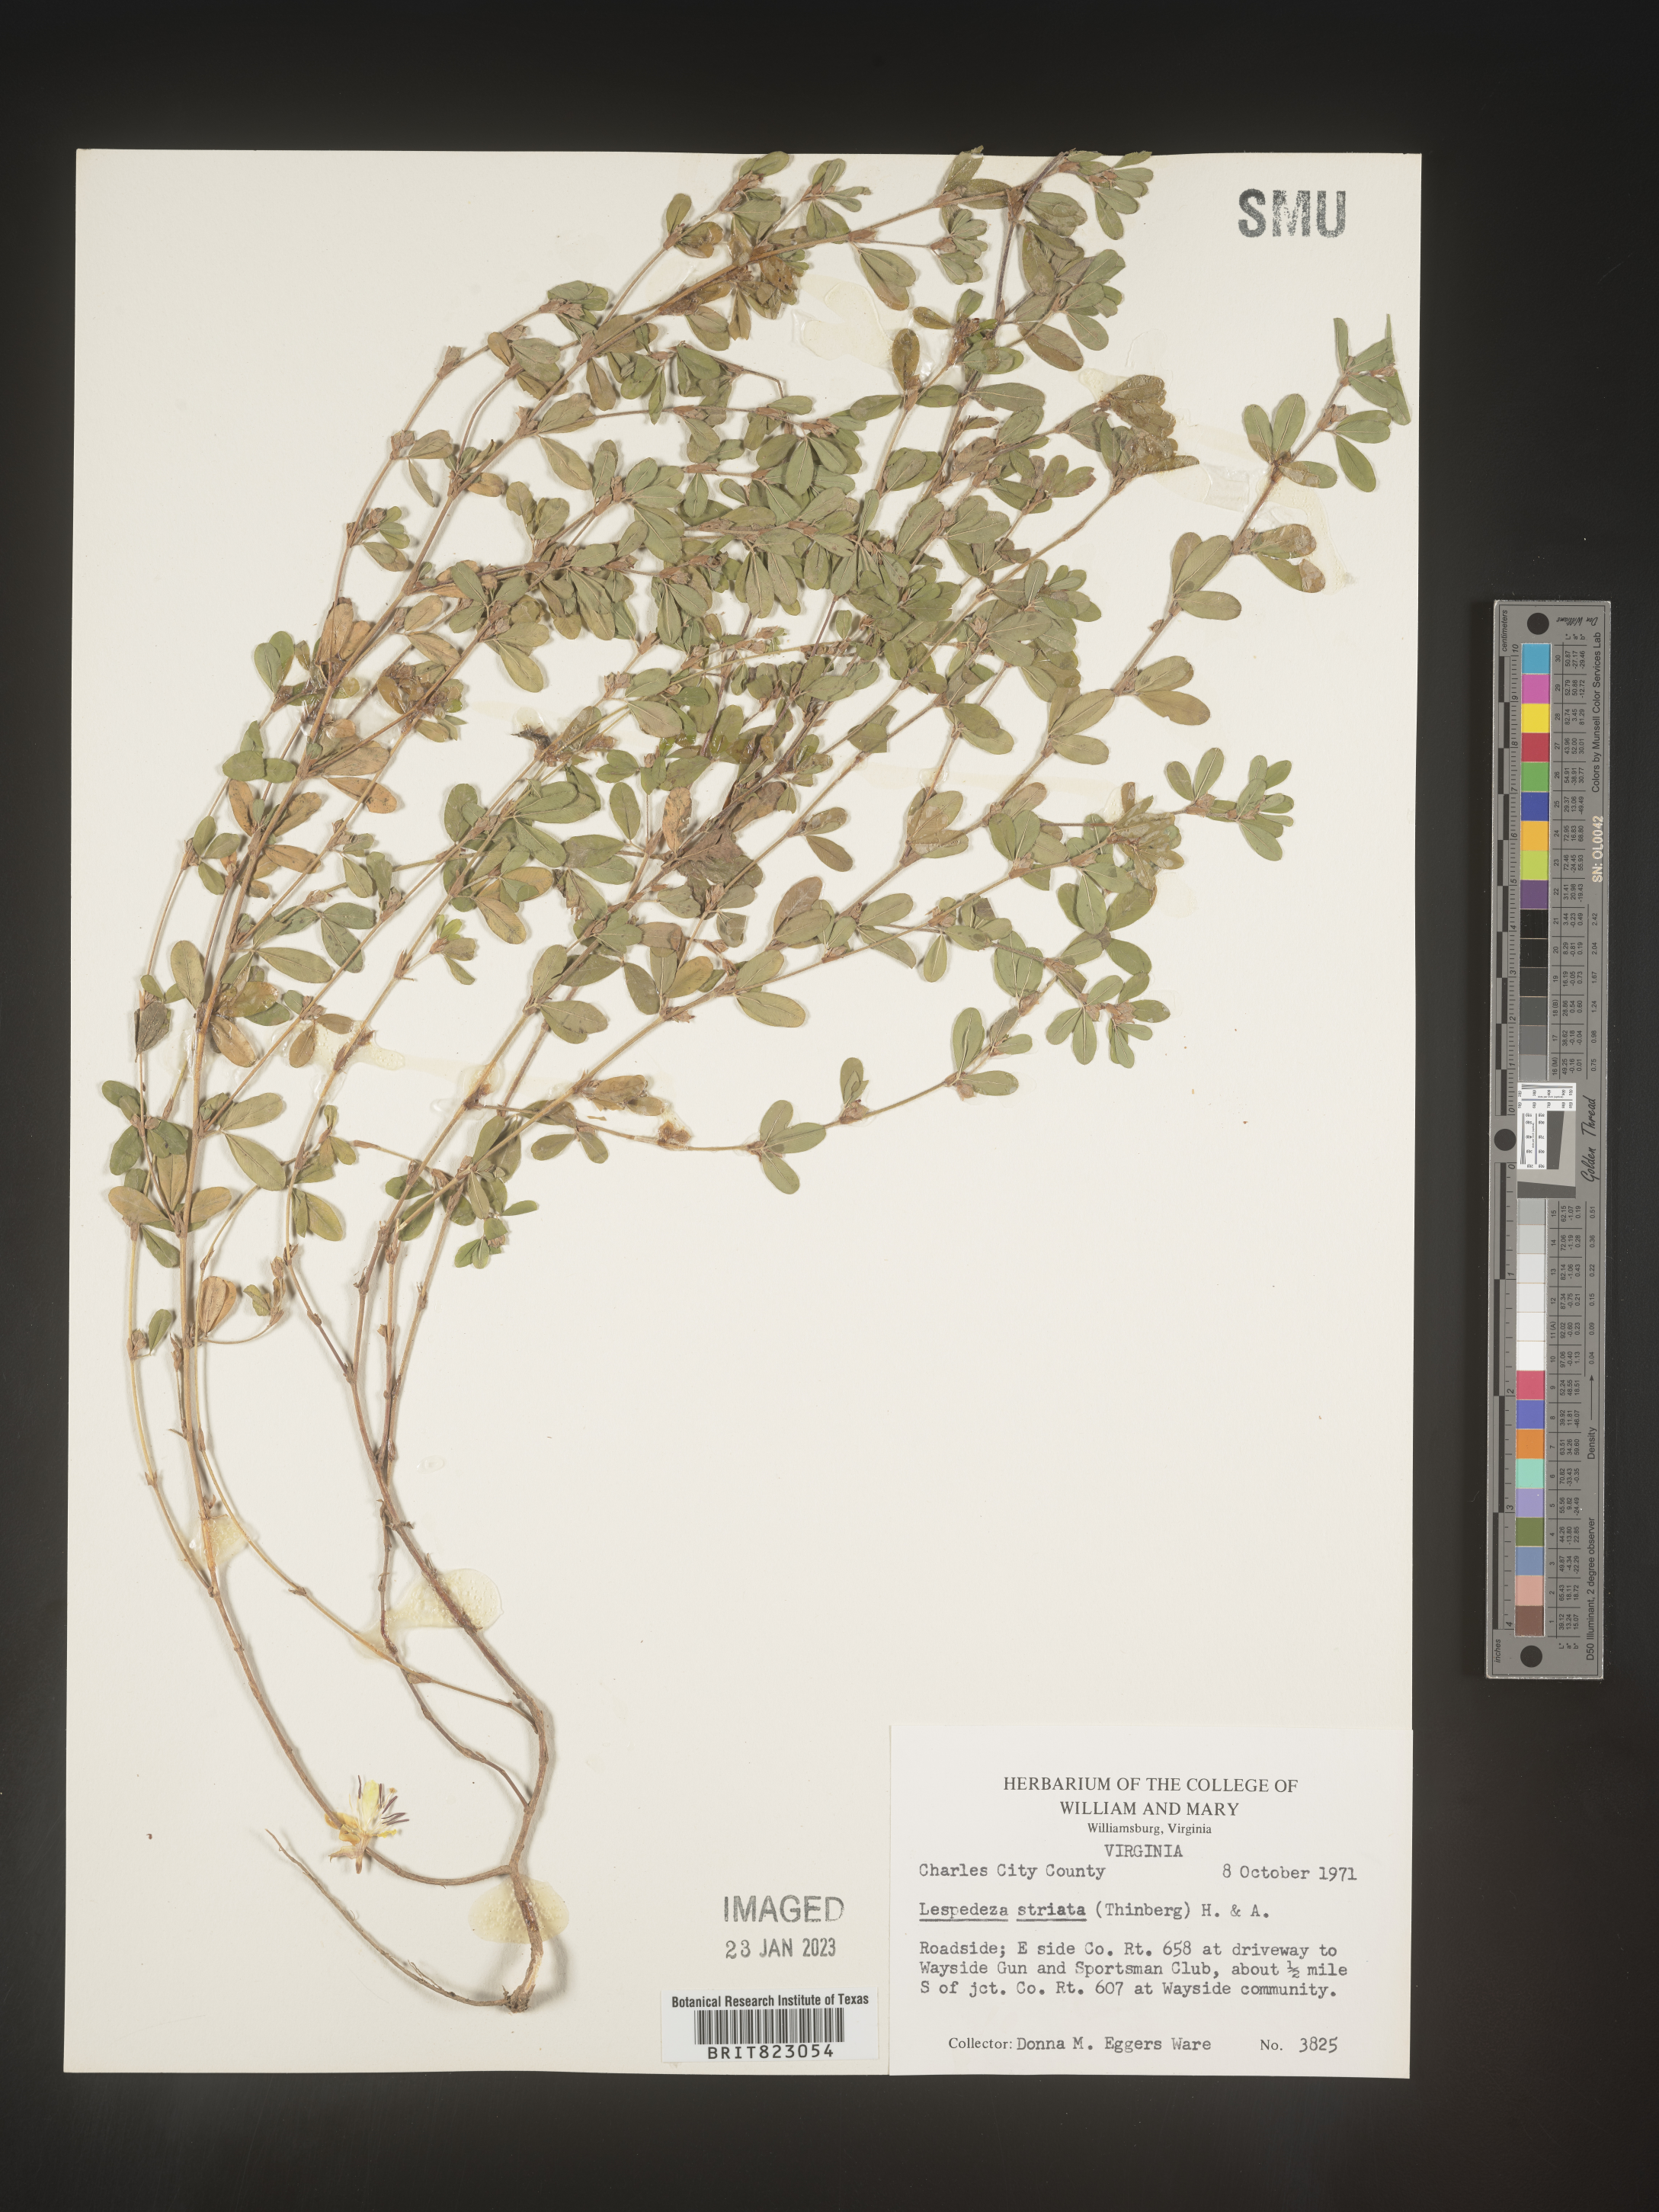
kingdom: Plantae
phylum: Tracheophyta
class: Magnoliopsida
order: Fabales
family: Fabaceae
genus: Kummerowia
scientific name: Kummerowia striata
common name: Japanese clover
